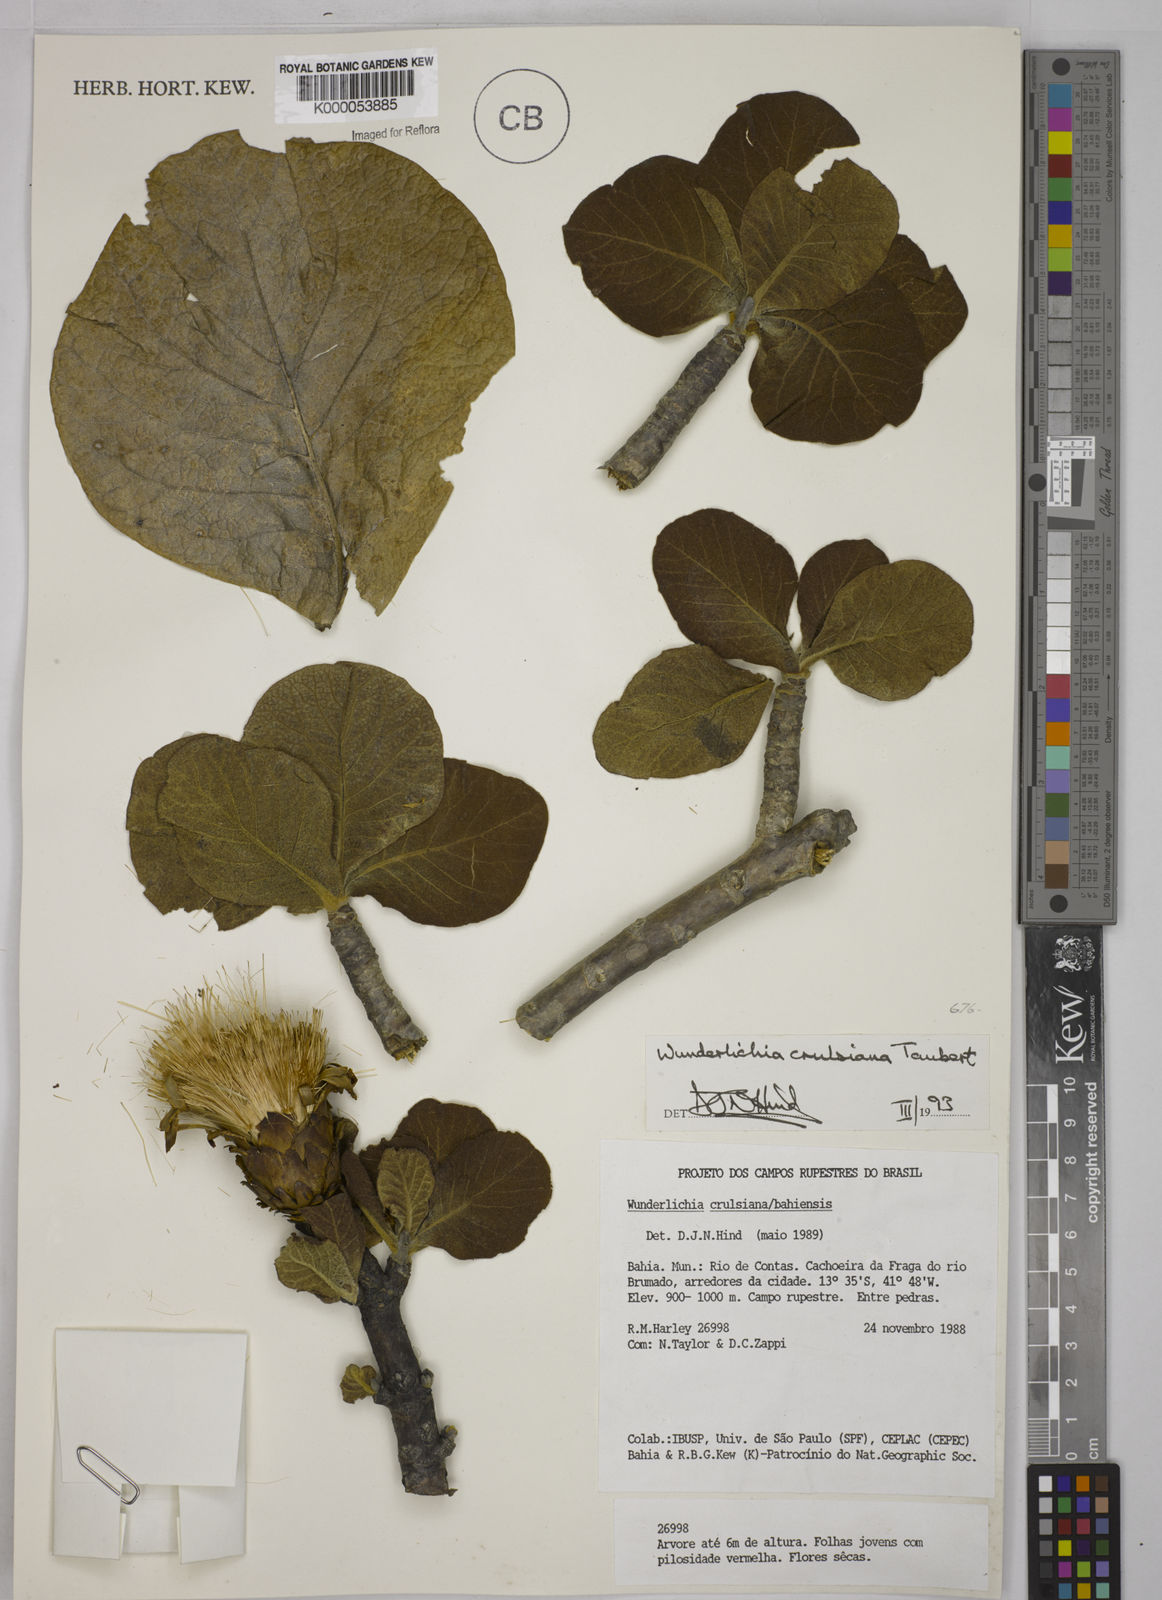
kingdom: Plantae
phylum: Tracheophyta
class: Magnoliopsida
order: Asterales
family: Asteraceae
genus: Wunderlichia
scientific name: Wunderlichia
